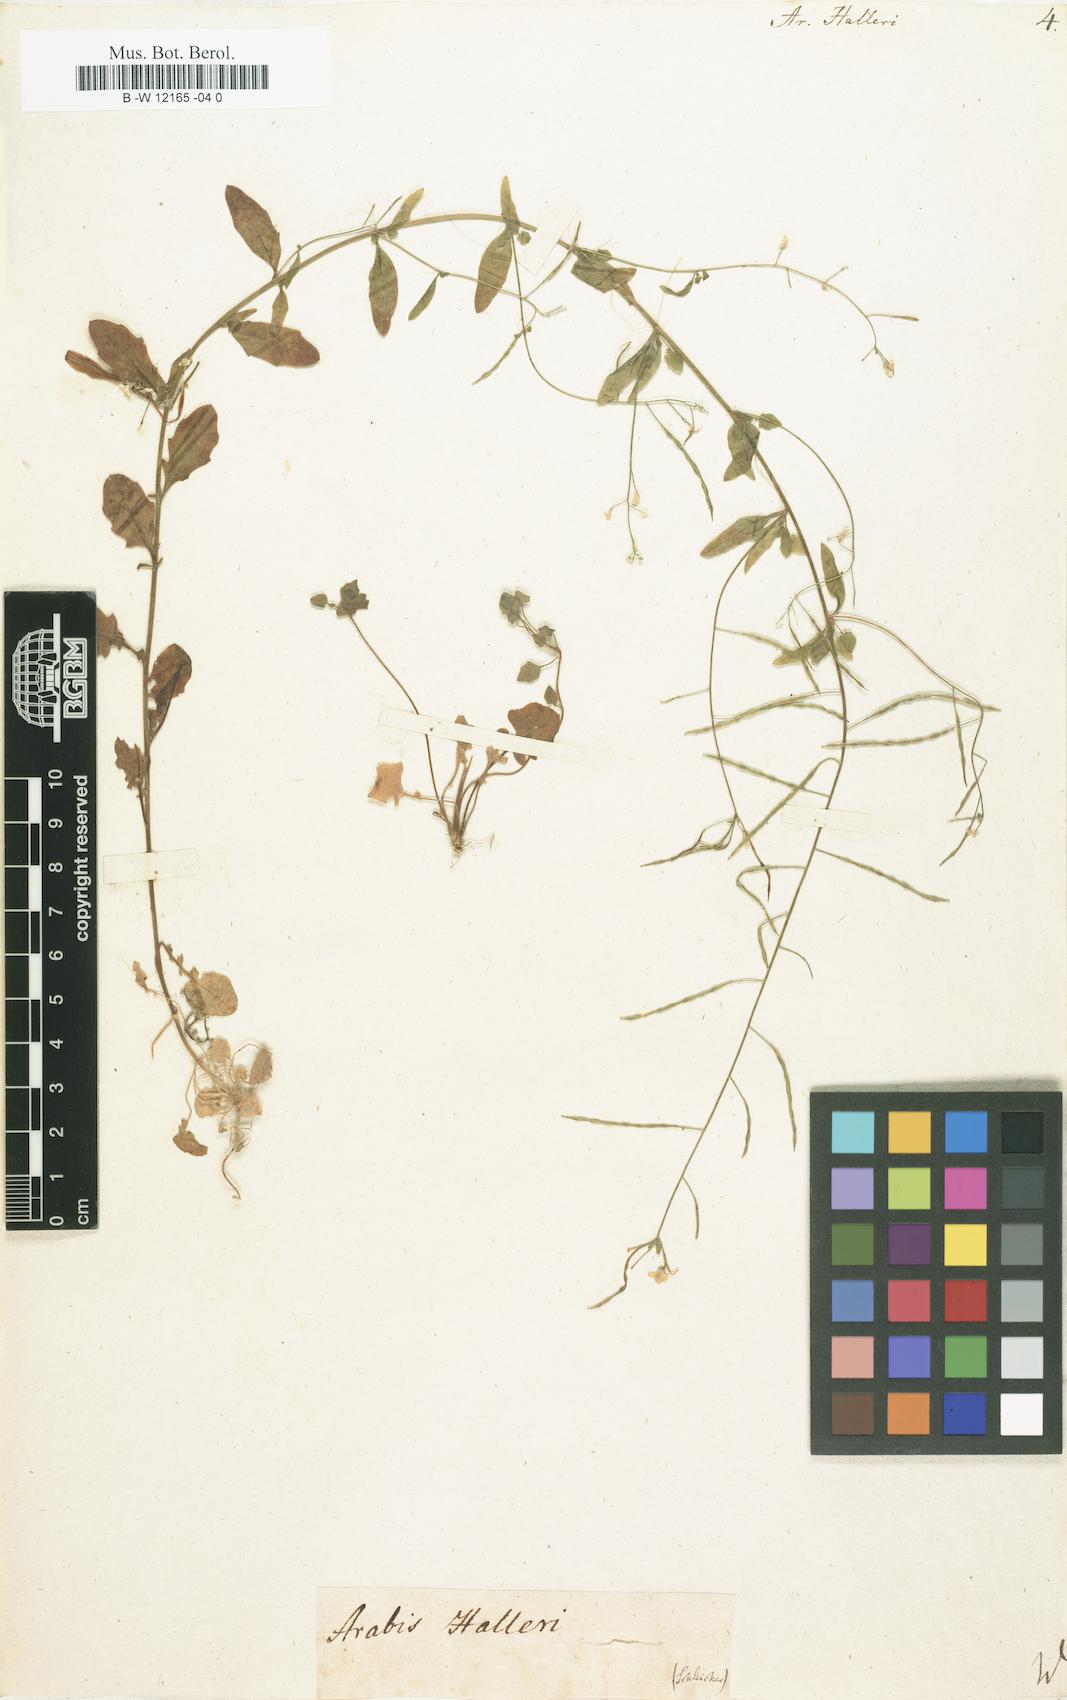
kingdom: Plantae
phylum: Tracheophyta
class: Magnoliopsida
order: Brassicales
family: Brassicaceae
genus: Arabidopsis
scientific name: Arabidopsis
